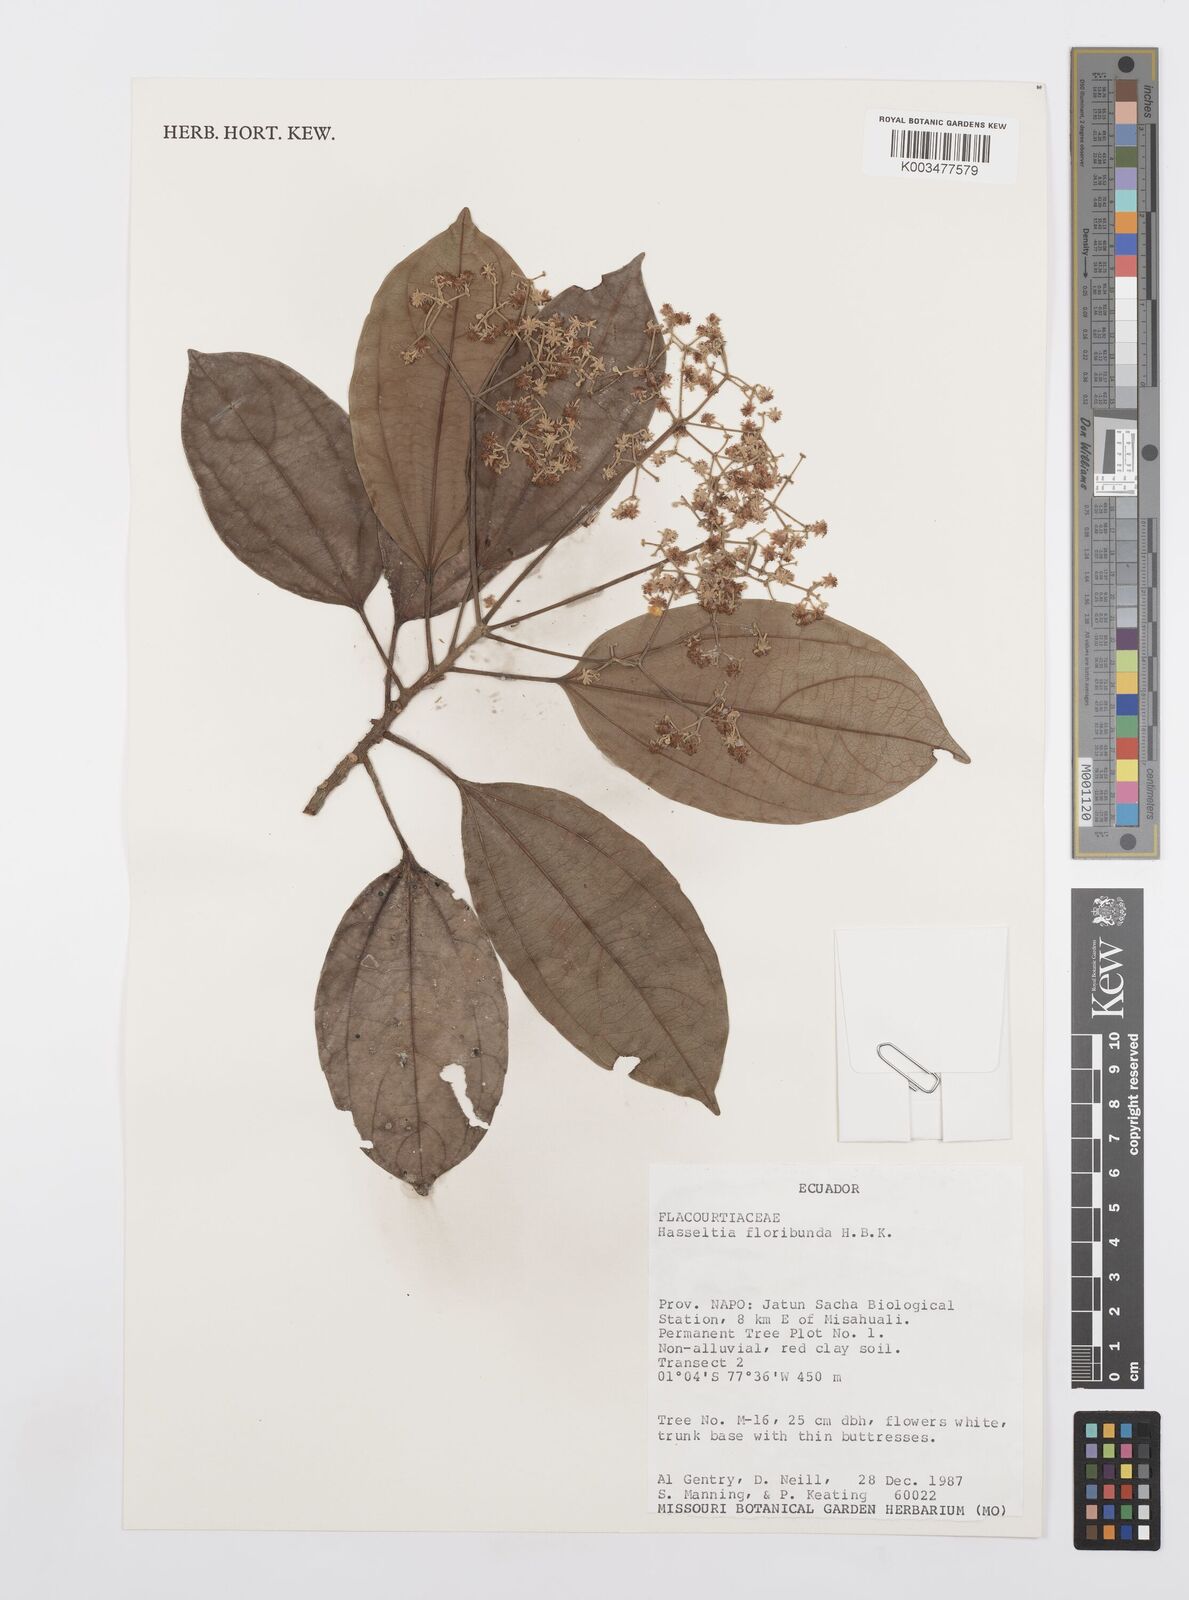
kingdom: Plantae
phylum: Tracheophyta
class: Magnoliopsida
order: Malpighiales
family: Salicaceae
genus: Hasseltia
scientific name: Hasseltia floribunda
